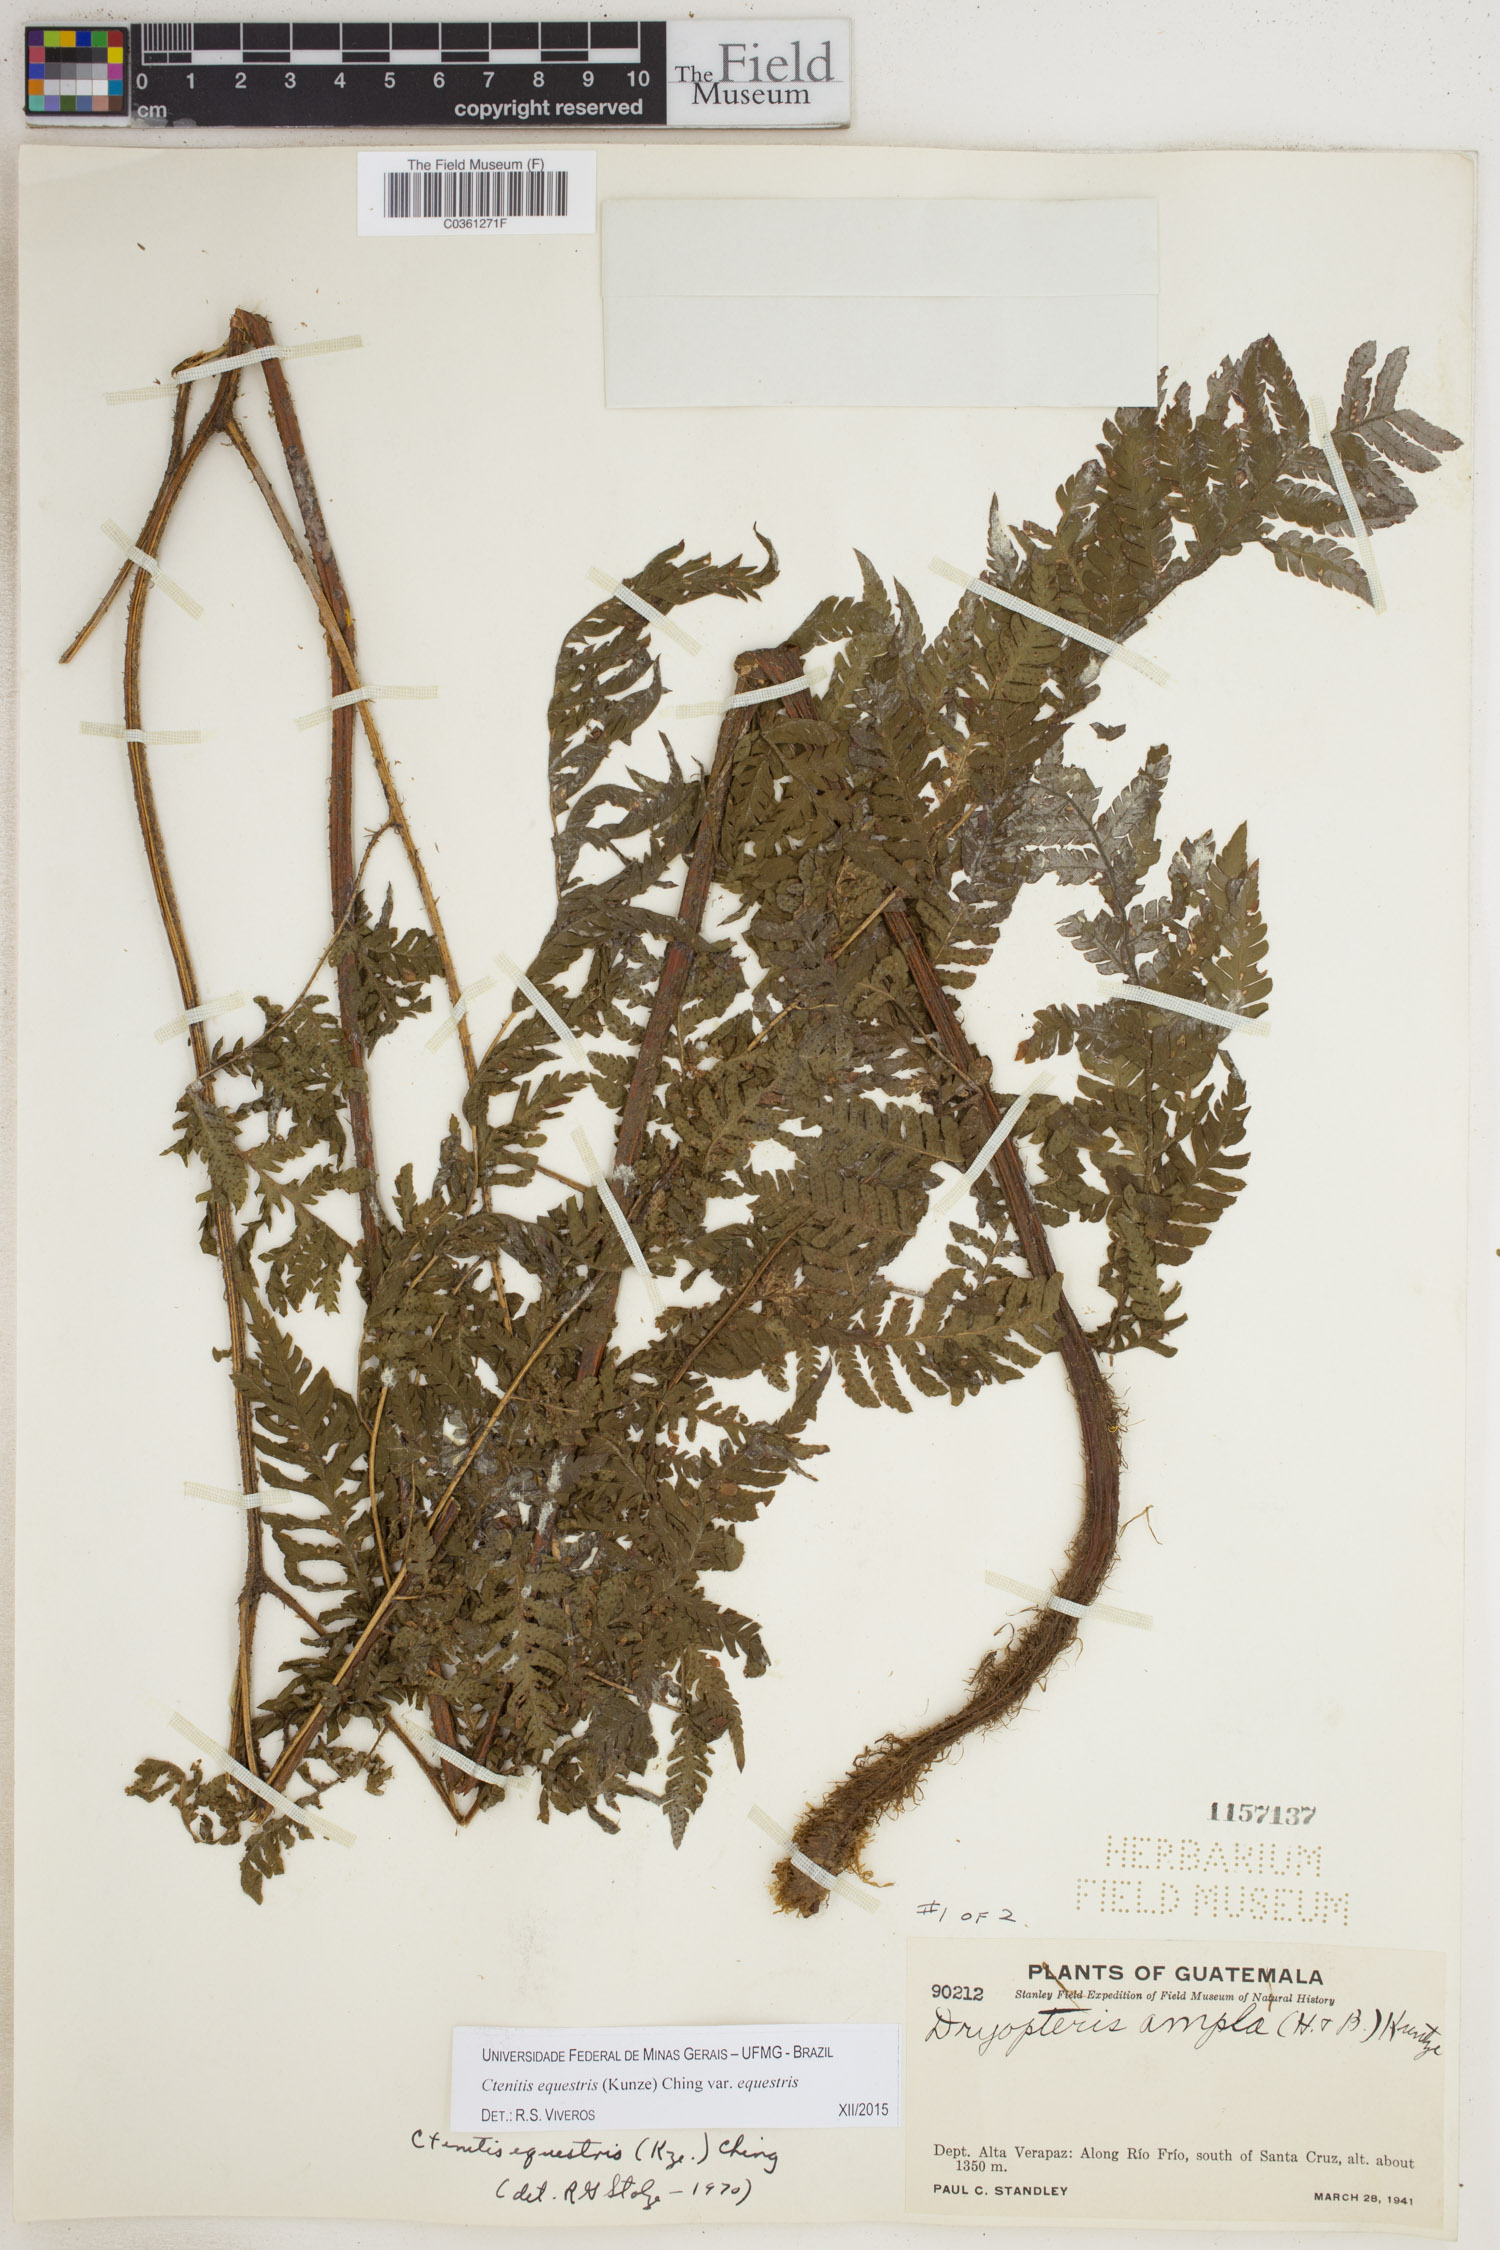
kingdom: Plantae
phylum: Tracheophyta
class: Polypodiopsida
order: Polypodiales
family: Dryopteridaceae
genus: Ctenitis
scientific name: Ctenitis equestris
